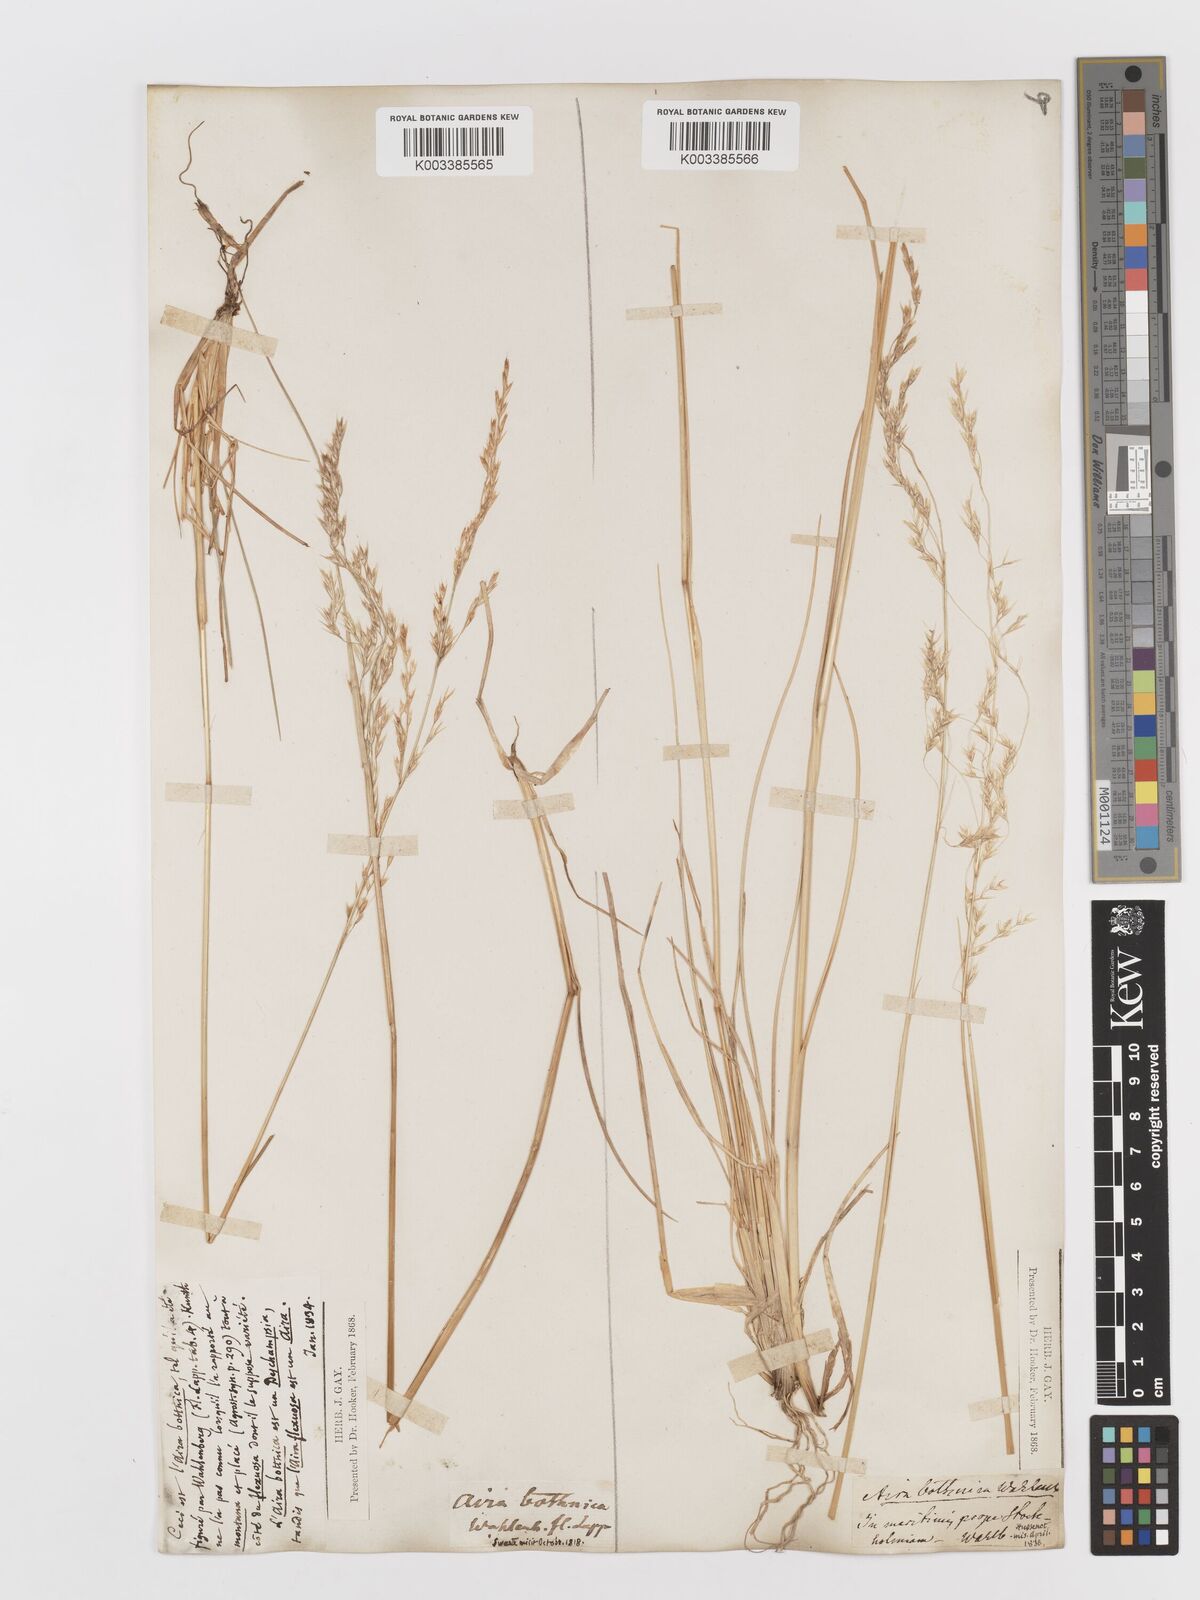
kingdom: Plantae
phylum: Tracheophyta
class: Liliopsida
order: Poales
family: Poaceae
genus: Deschampsia
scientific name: Deschampsia cespitosa
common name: Tufted hair-grass
